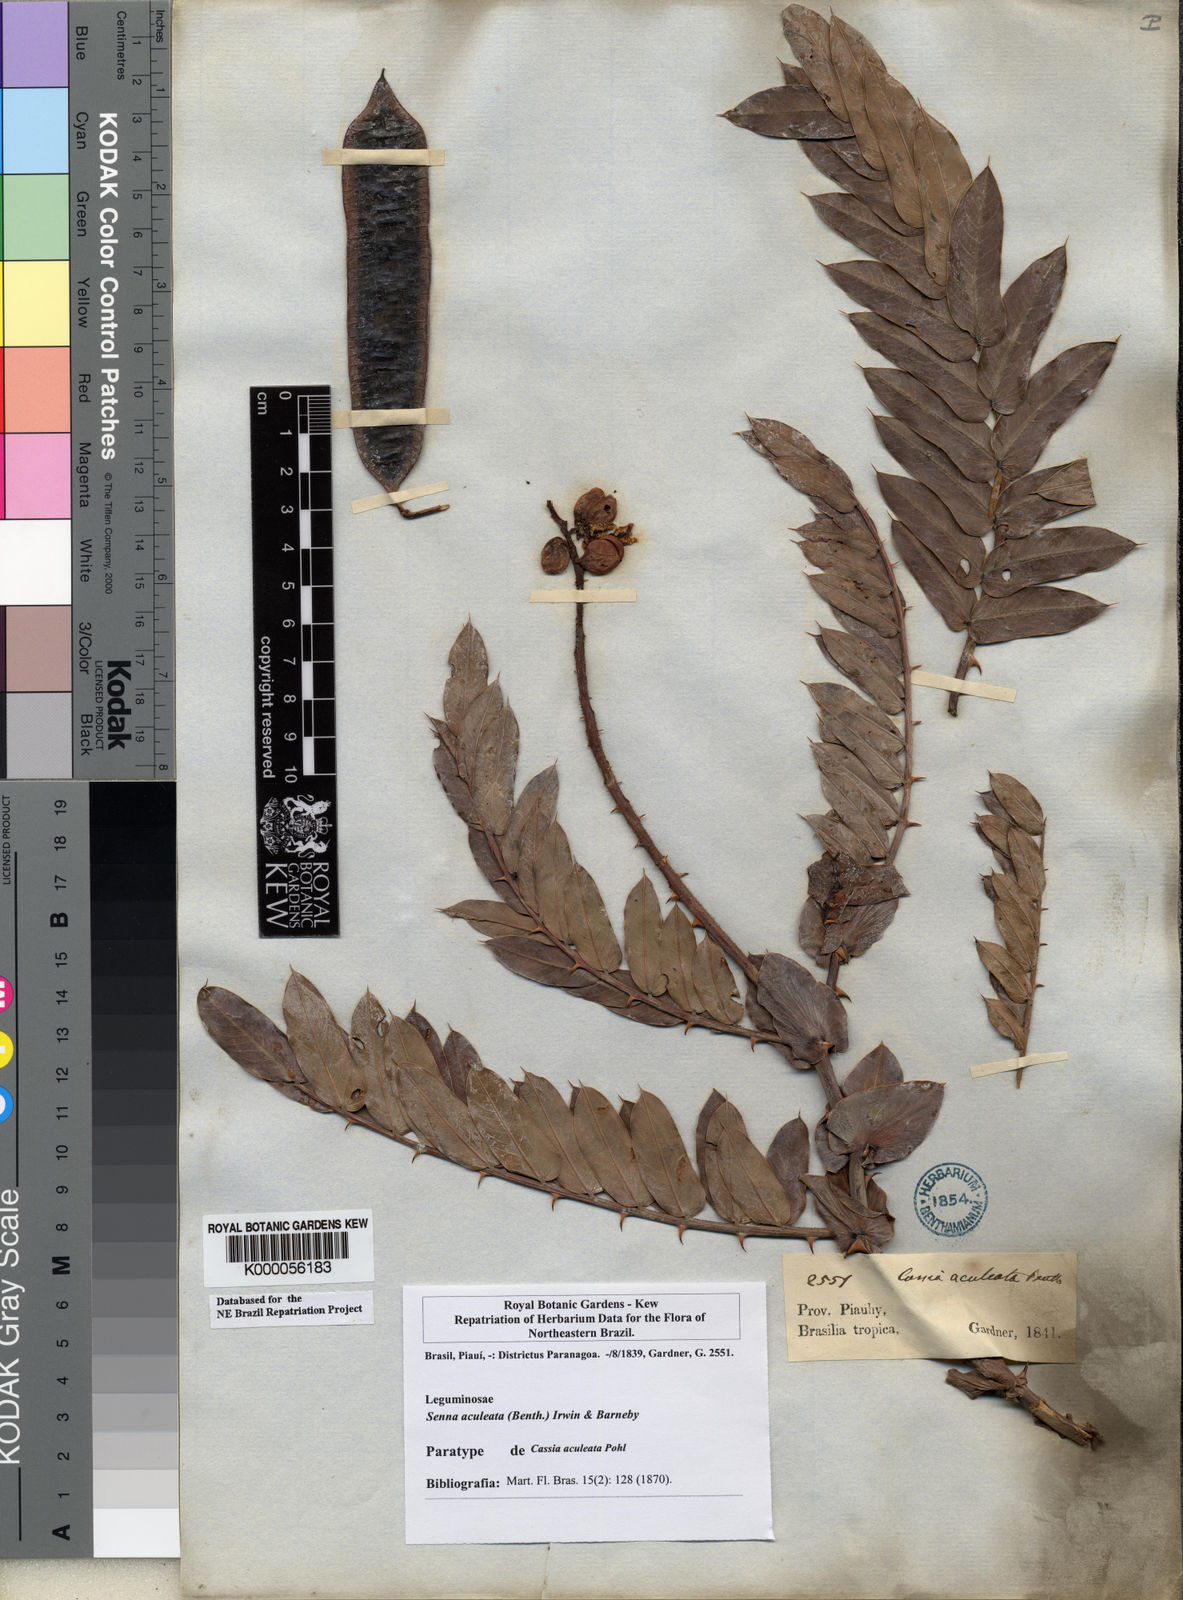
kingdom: Plantae
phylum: Tracheophyta
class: Magnoliopsida
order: Fabales
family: Fabaceae
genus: Senna
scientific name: Senna aculeata
